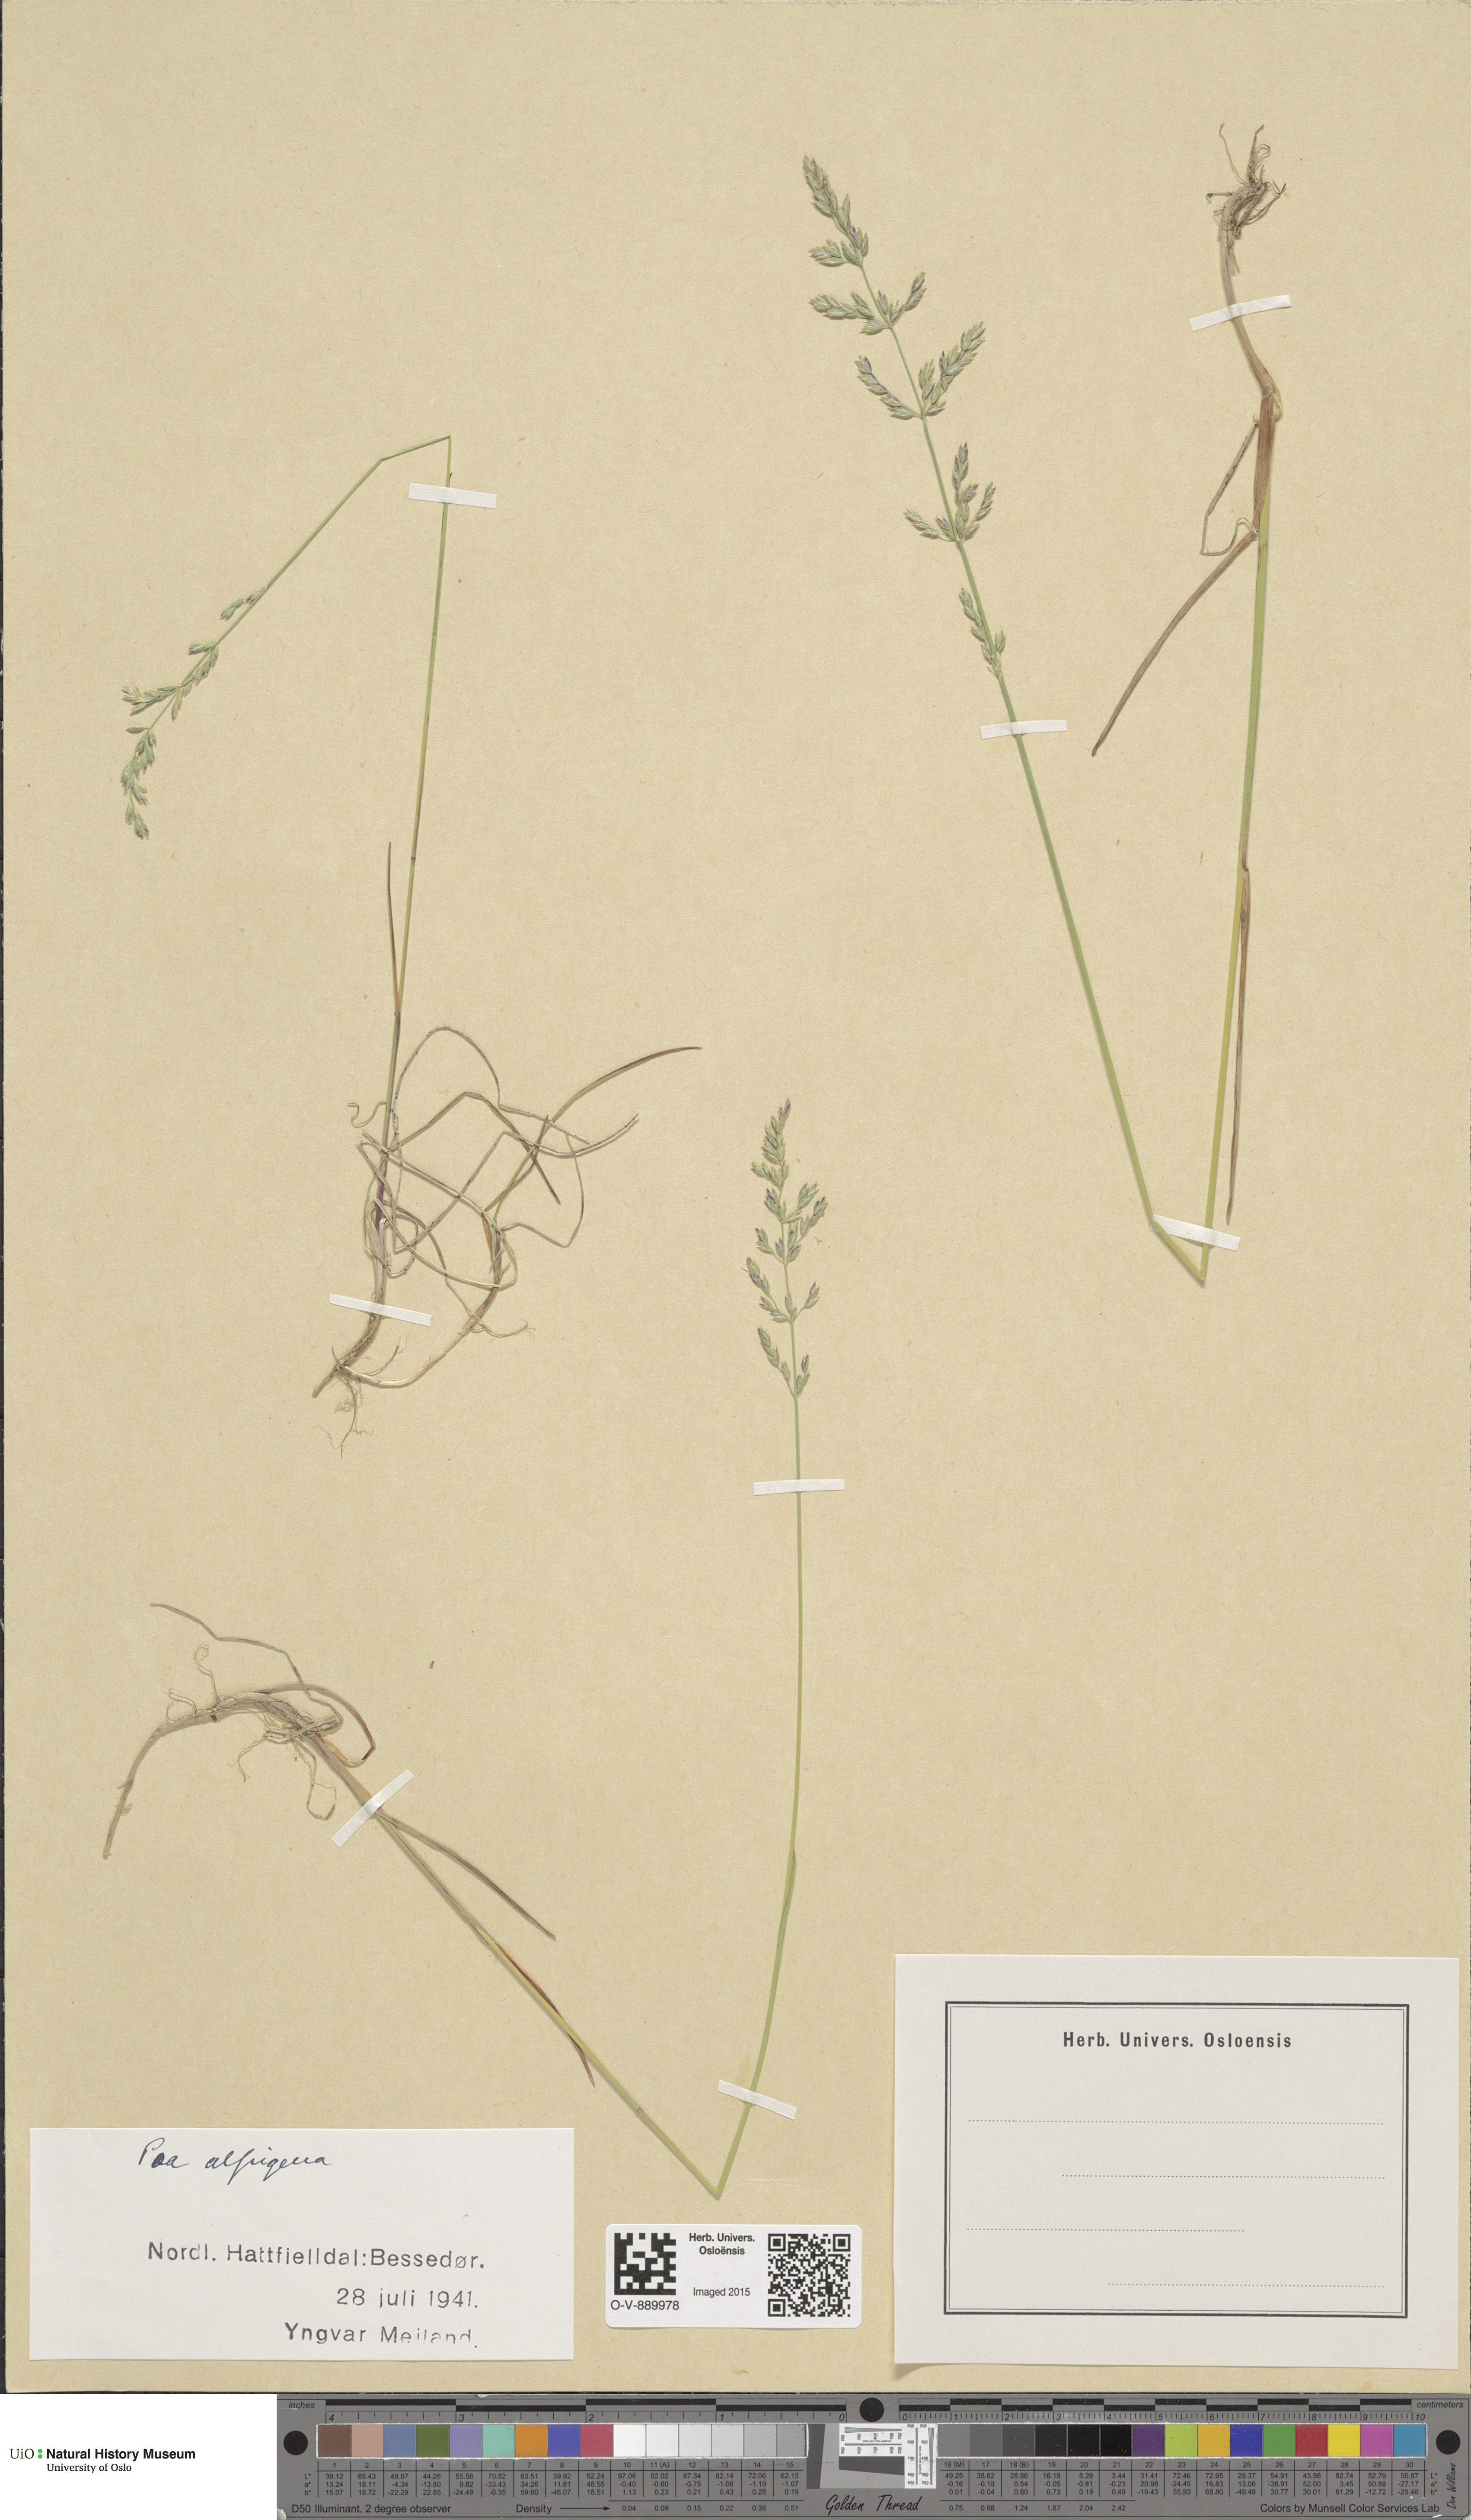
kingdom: Plantae
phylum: Tracheophyta
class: Liliopsida
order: Poales
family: Poaceae
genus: Poa
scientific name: Poa alpigena
